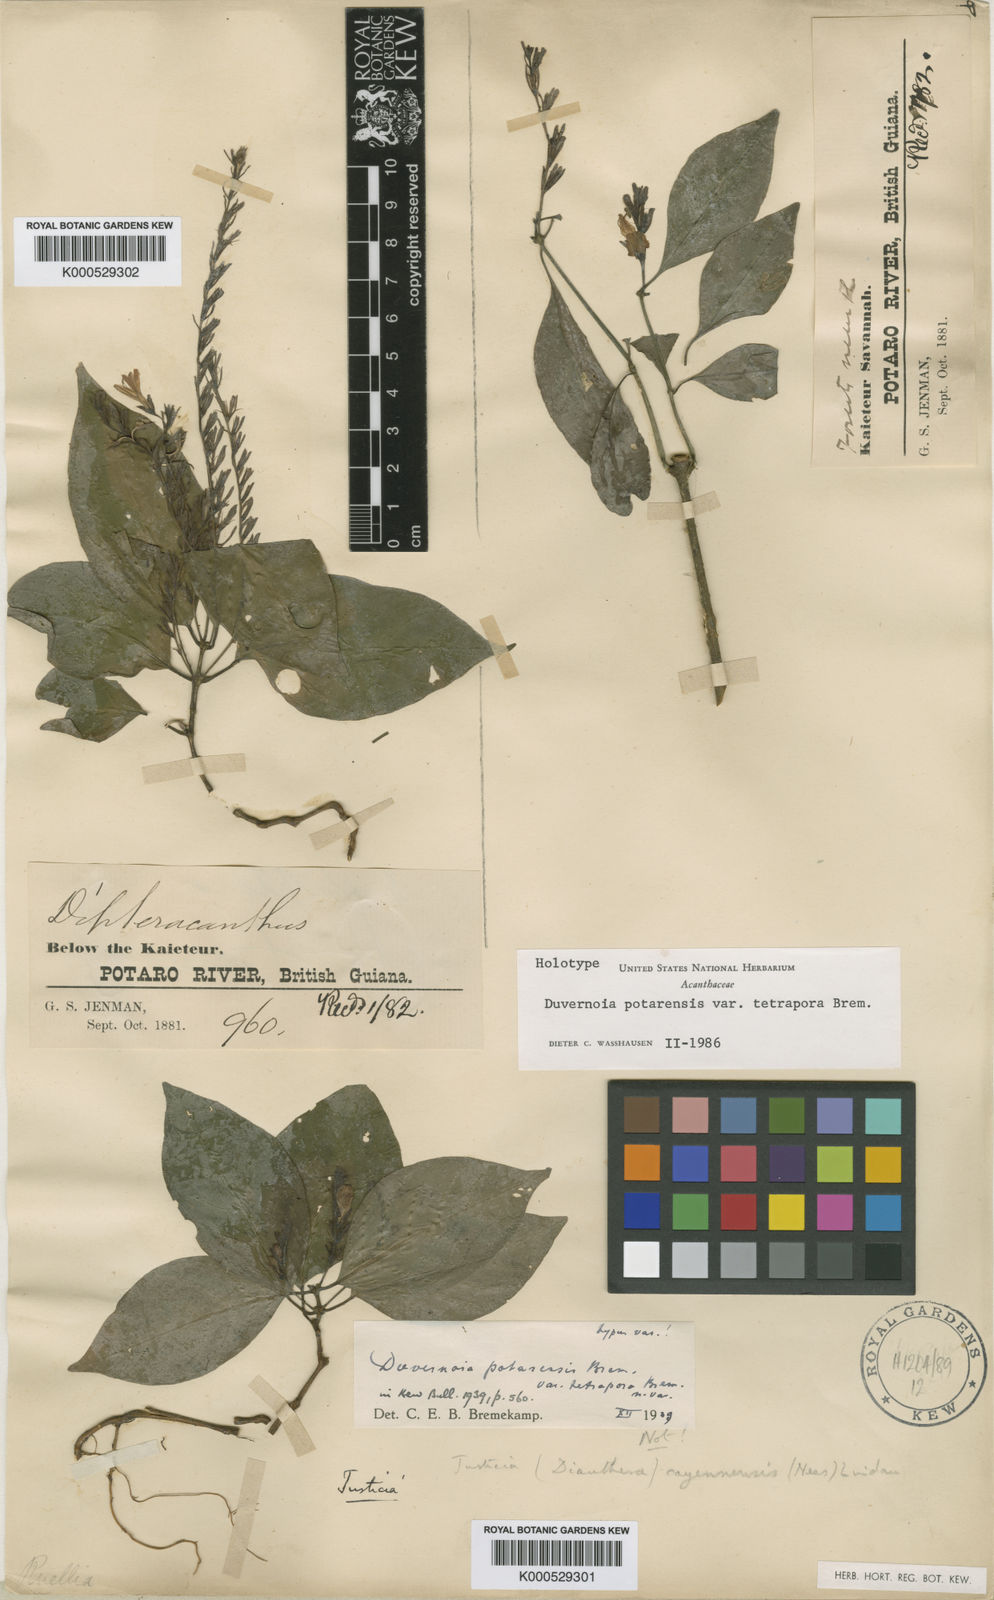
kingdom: Plantae
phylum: Tracheophyta
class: Magnoliopsida
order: Lamiales
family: Acanthaceae
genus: Justicia
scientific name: Justicia potarensis
